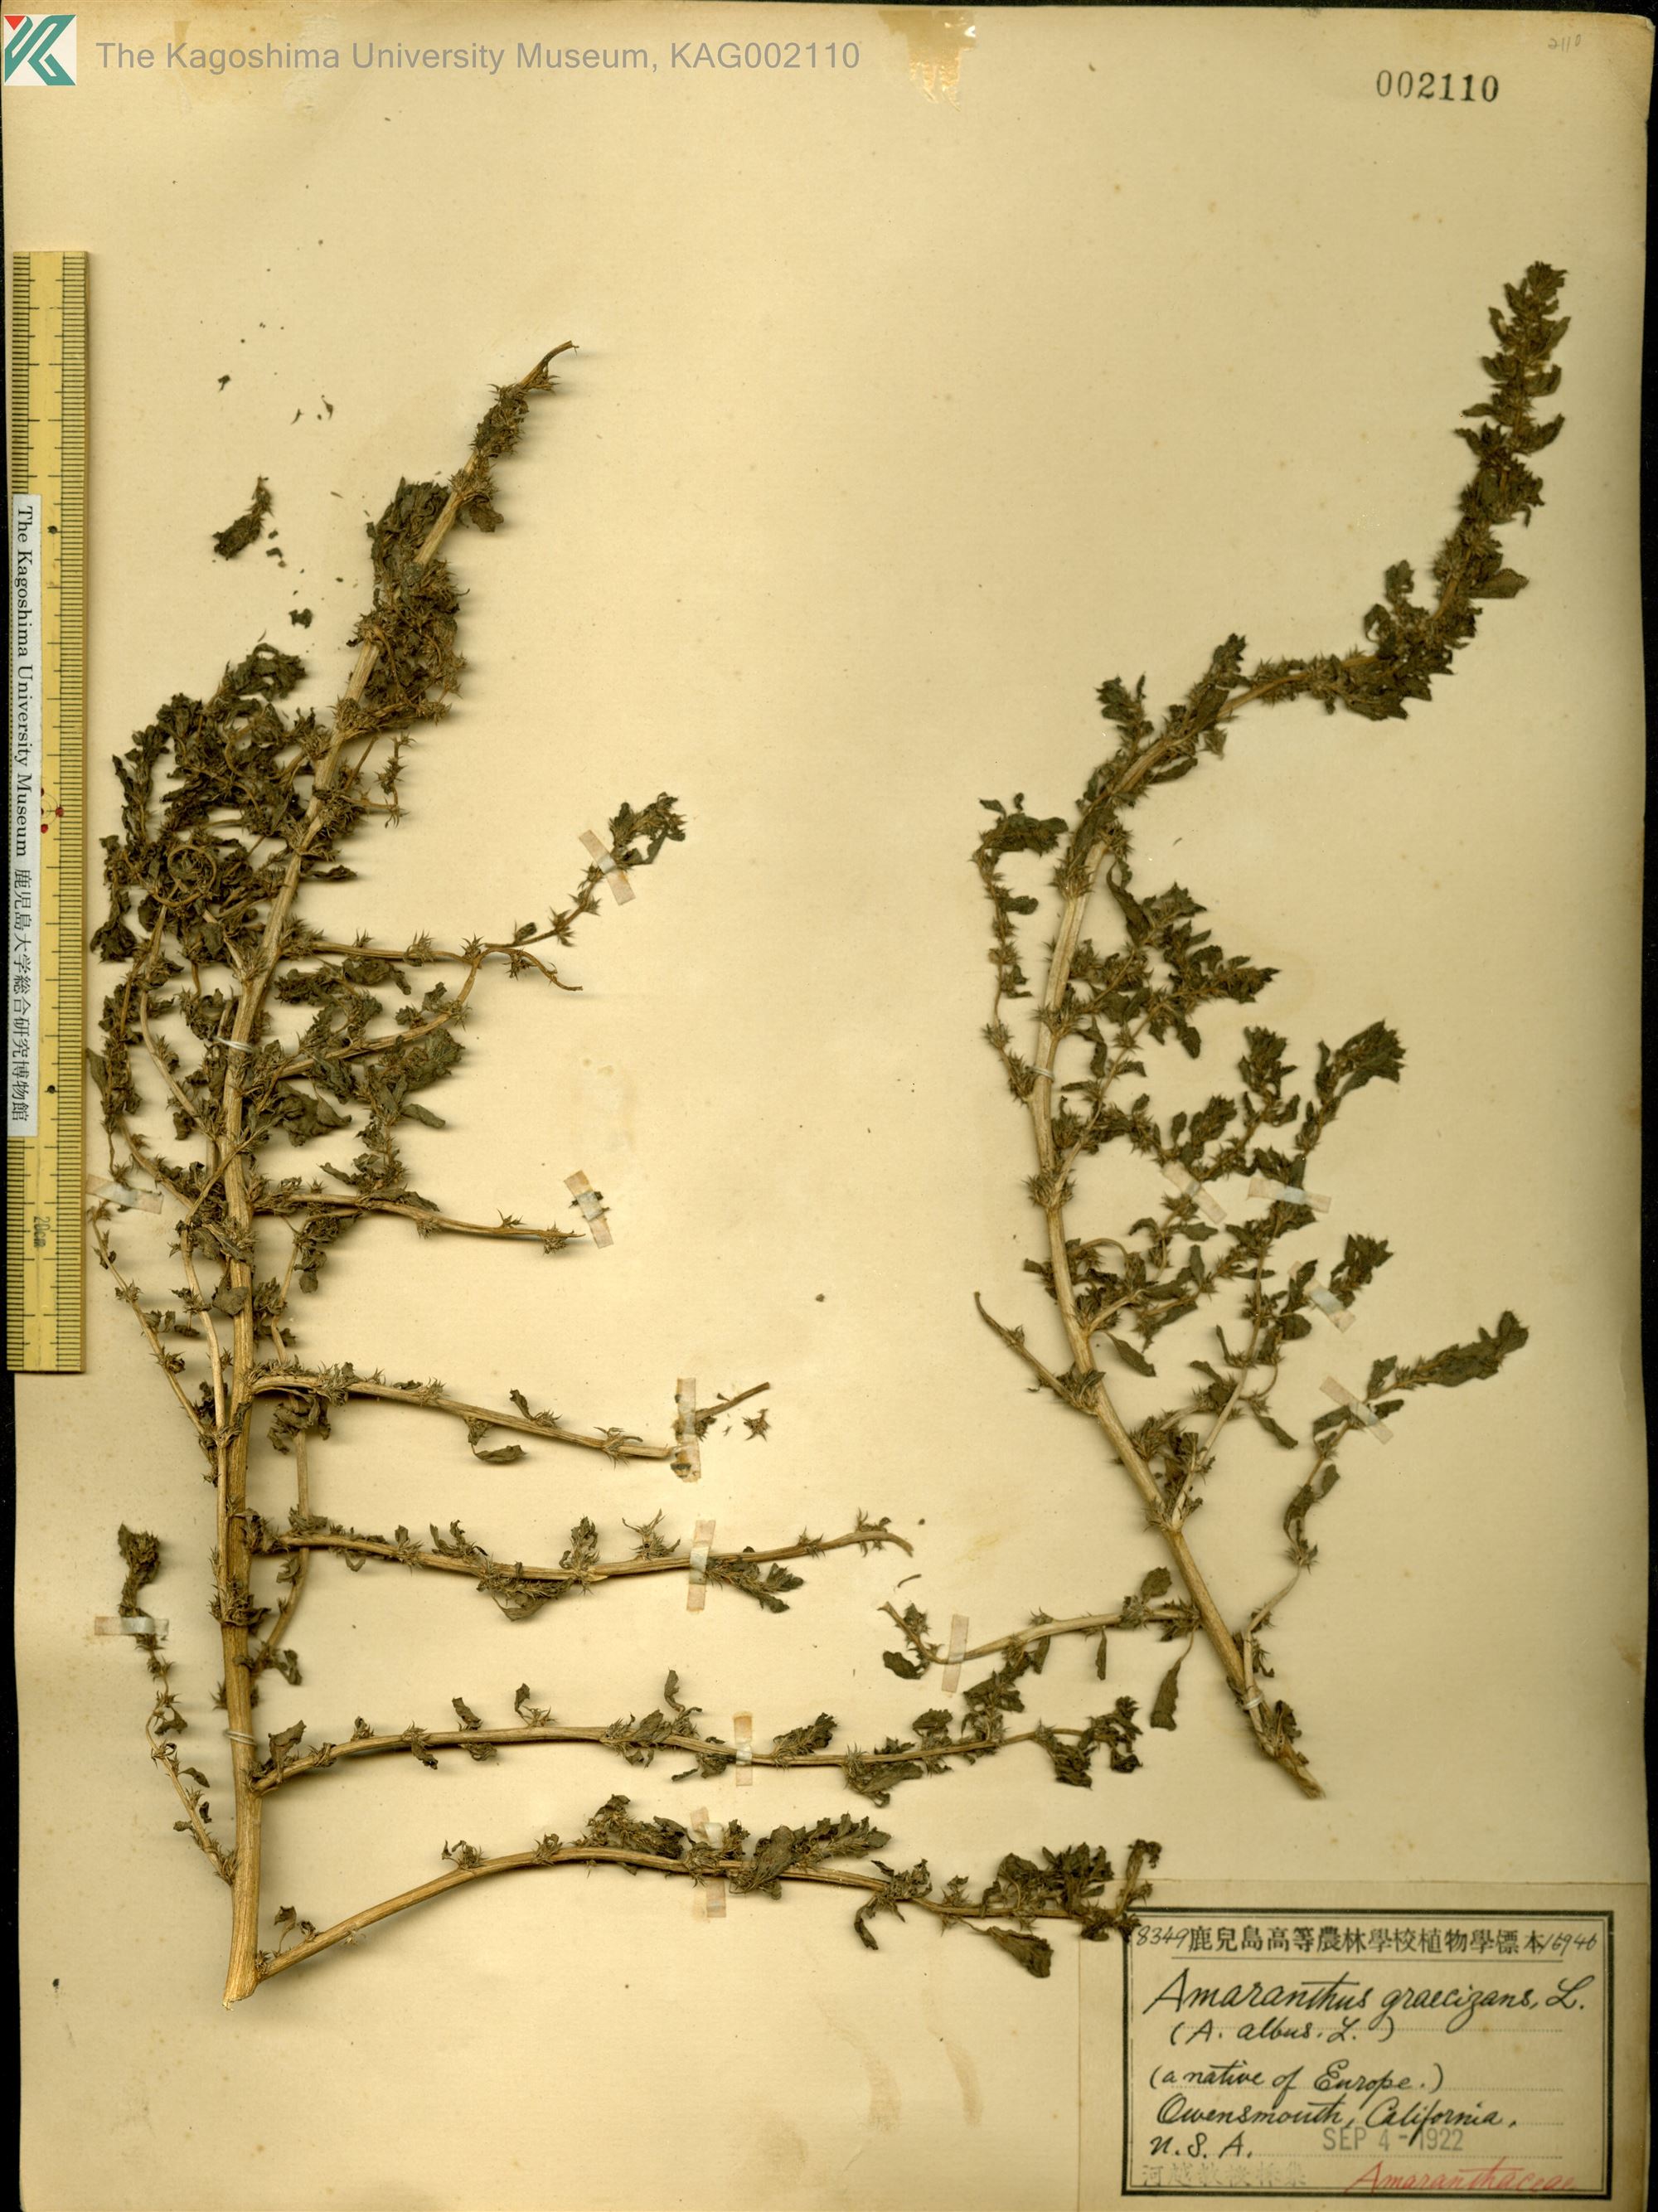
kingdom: Plantae
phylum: Tracheophyta
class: Magnoliopsida
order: Caryophyllales
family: Amaranthaceae
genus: Amaranthus
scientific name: Amaranthus graecizans
